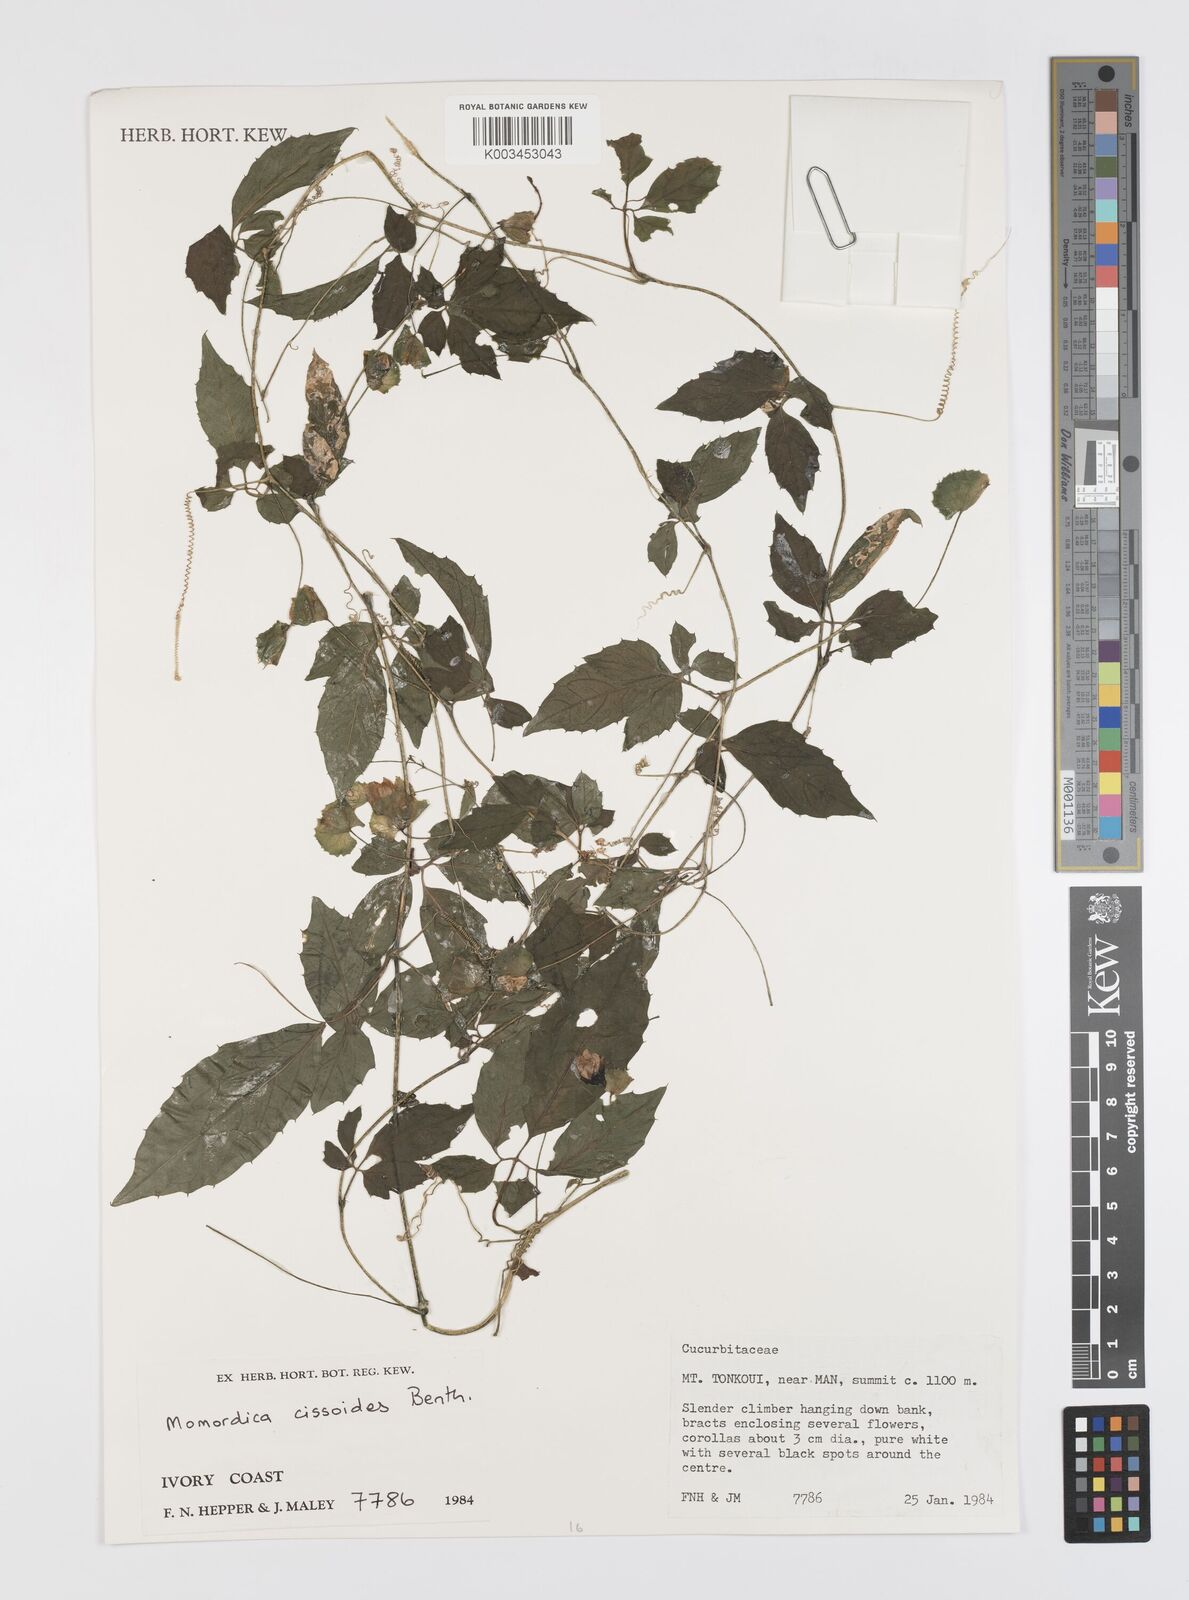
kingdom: Plantae
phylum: Tracheophyta
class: Magnoliopsida
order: Cucurbitales
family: Cucurbitaceae
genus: Momordica
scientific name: Momordica cissoides
